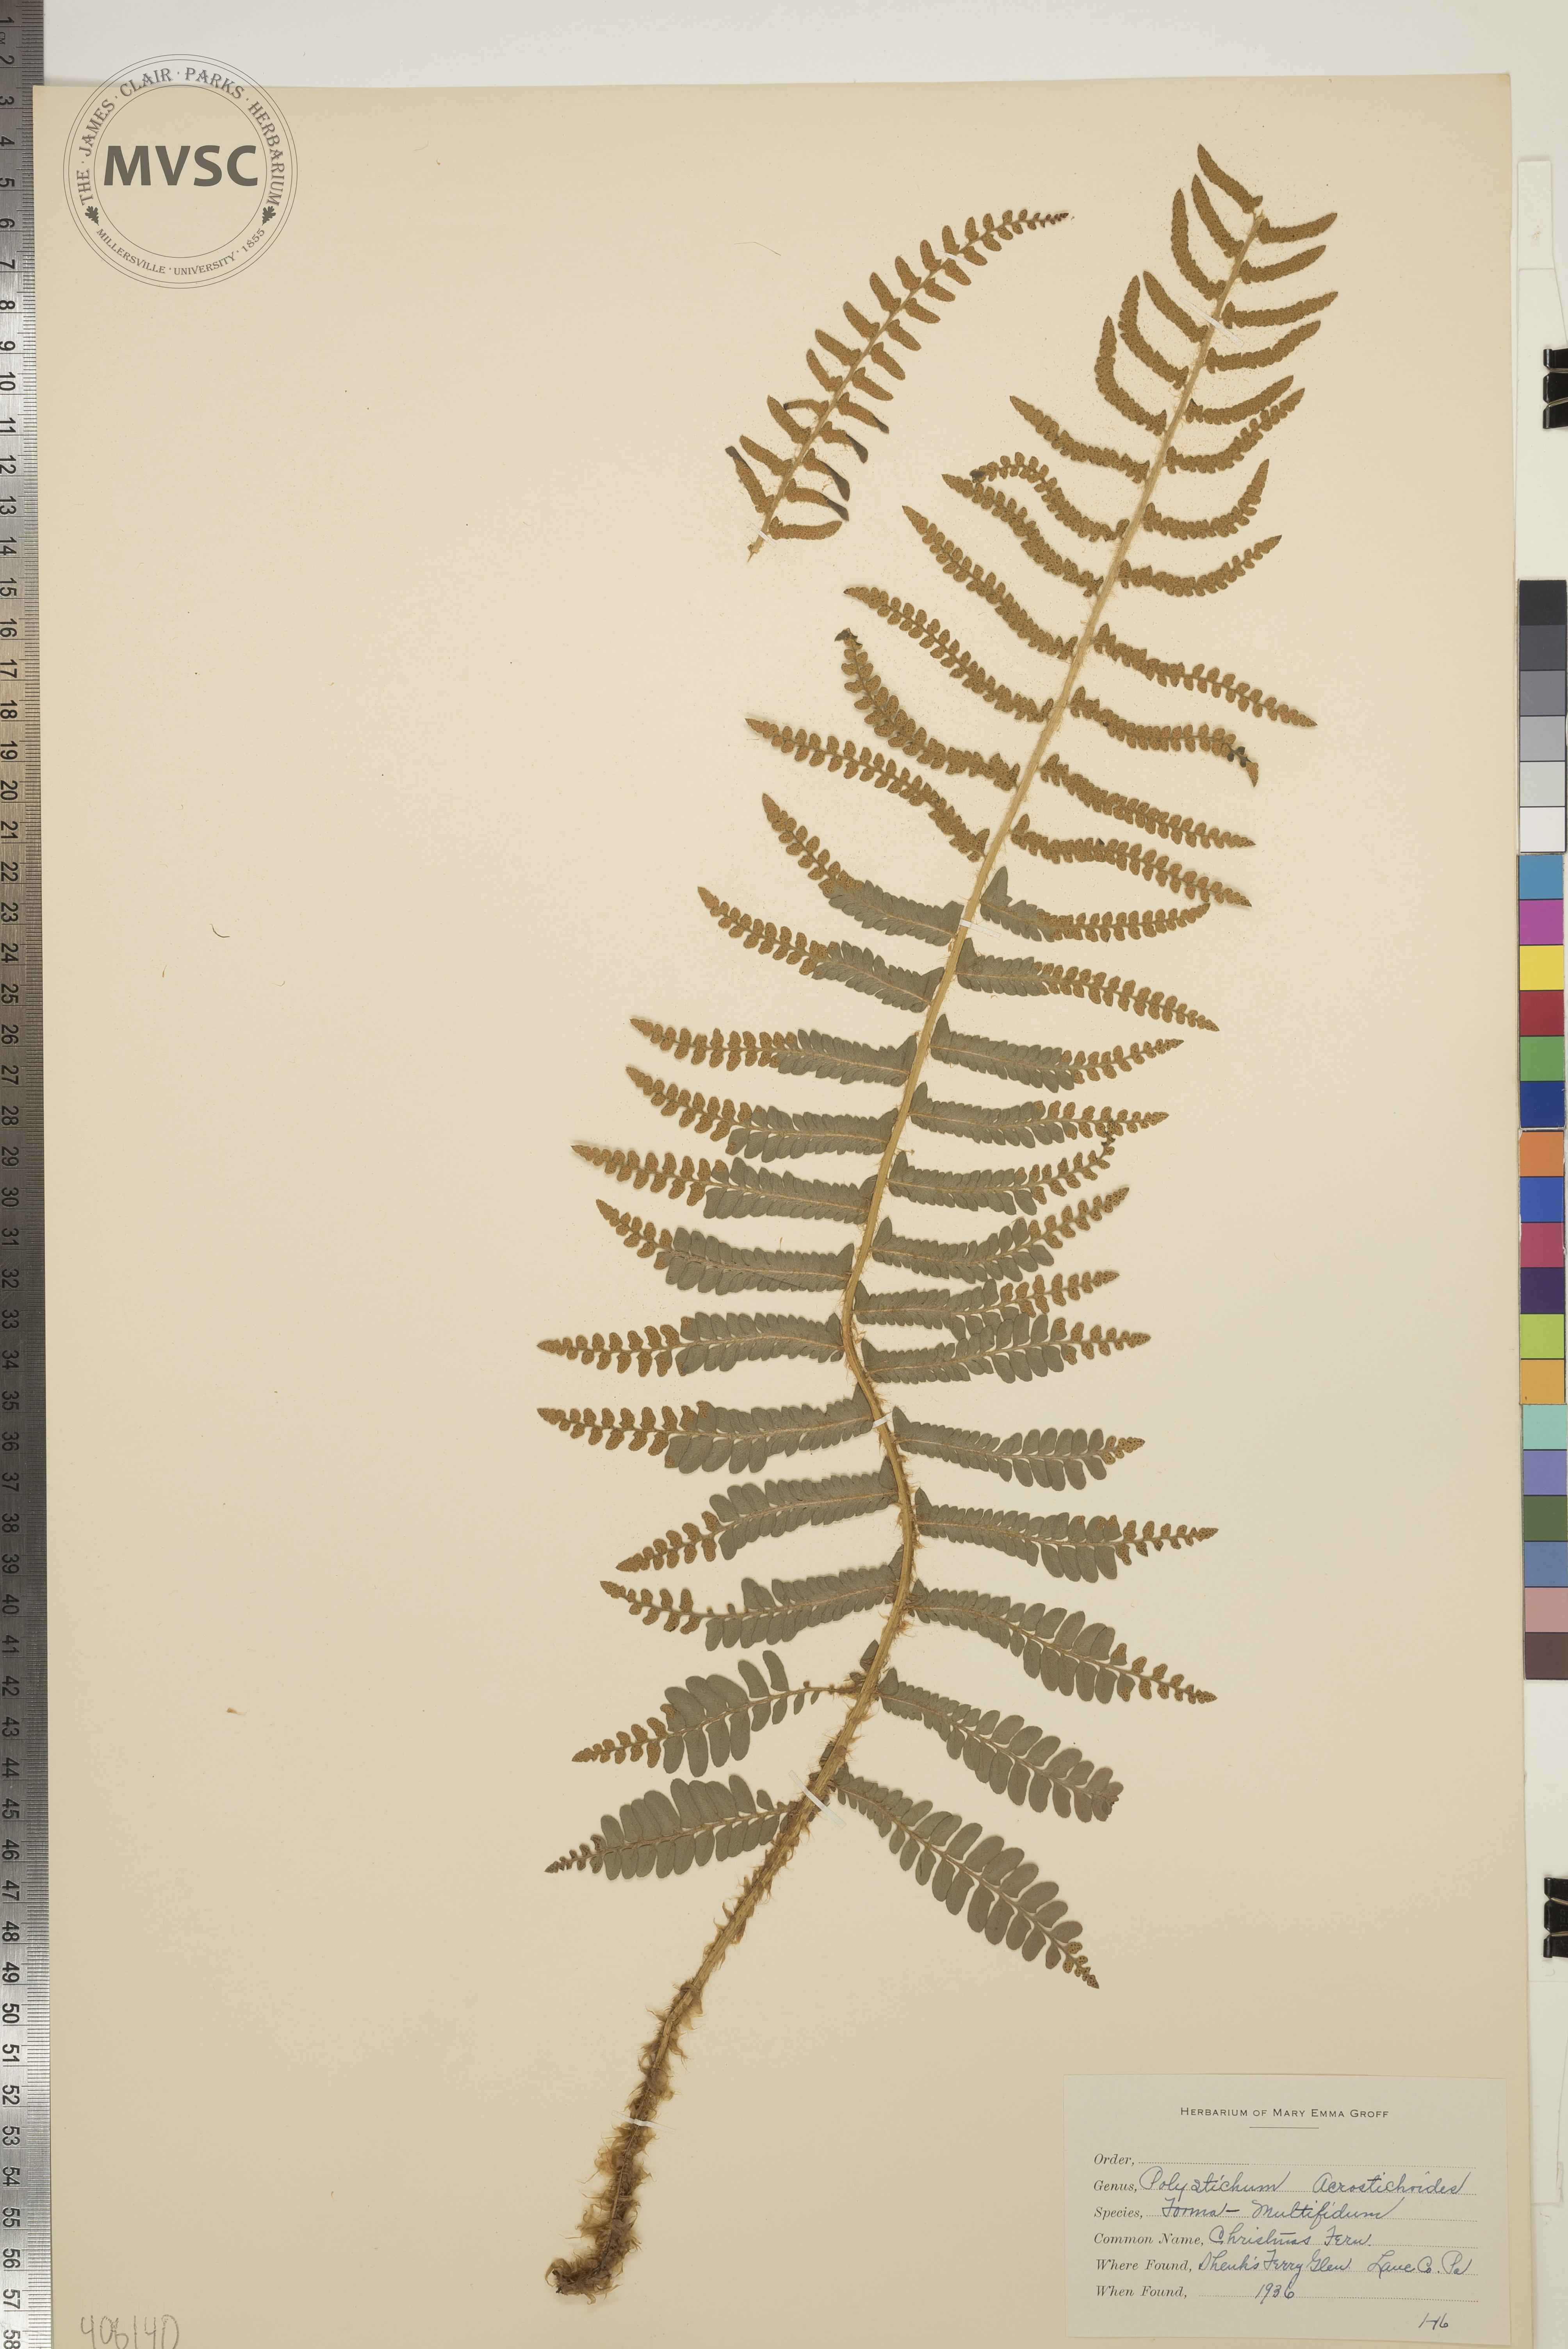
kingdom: Plantae
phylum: Tracheophyta
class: Polypodiopsida
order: Polypodiales
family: Dryopteridaceae
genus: Polystichum
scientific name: Polystichum acrostichoides
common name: Christmas Fern
